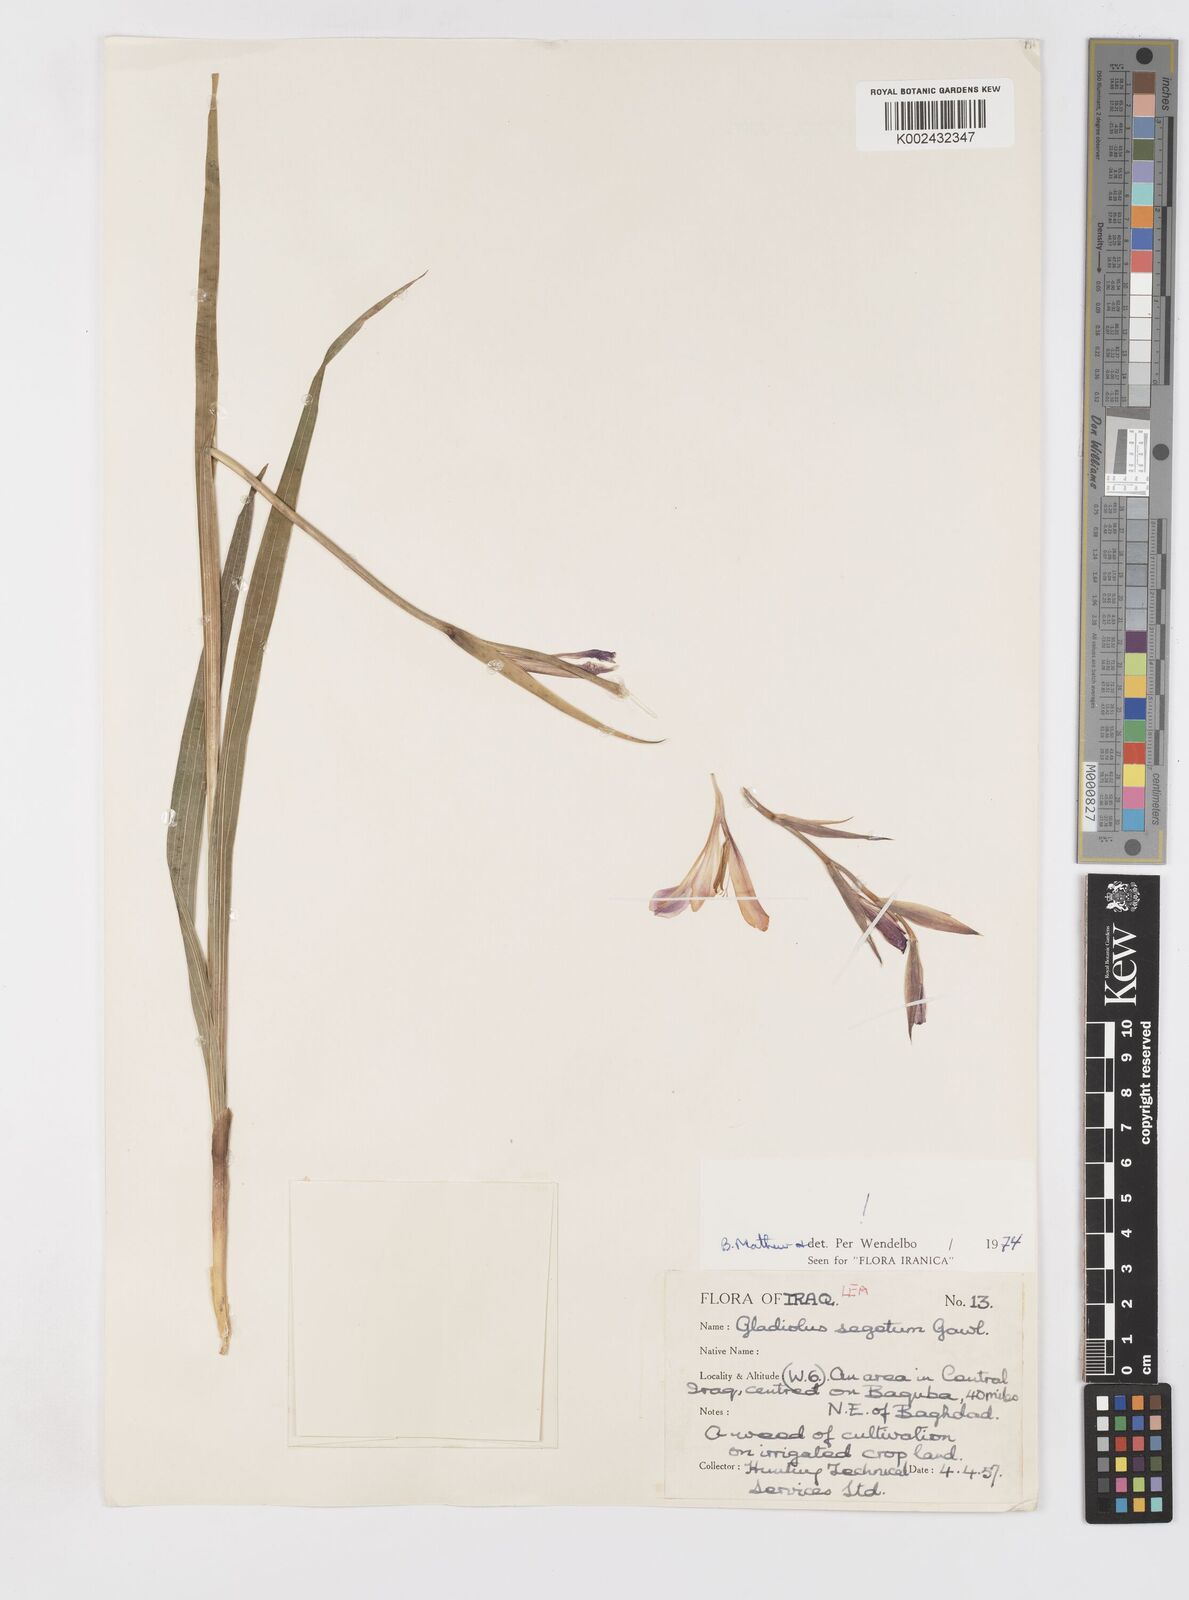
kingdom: Plantae
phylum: Tracheophyta
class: Liliopsida
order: Asparagales
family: Iridaceae
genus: Gladiolus
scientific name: Gladiolus italicus
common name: Field gladiolus
